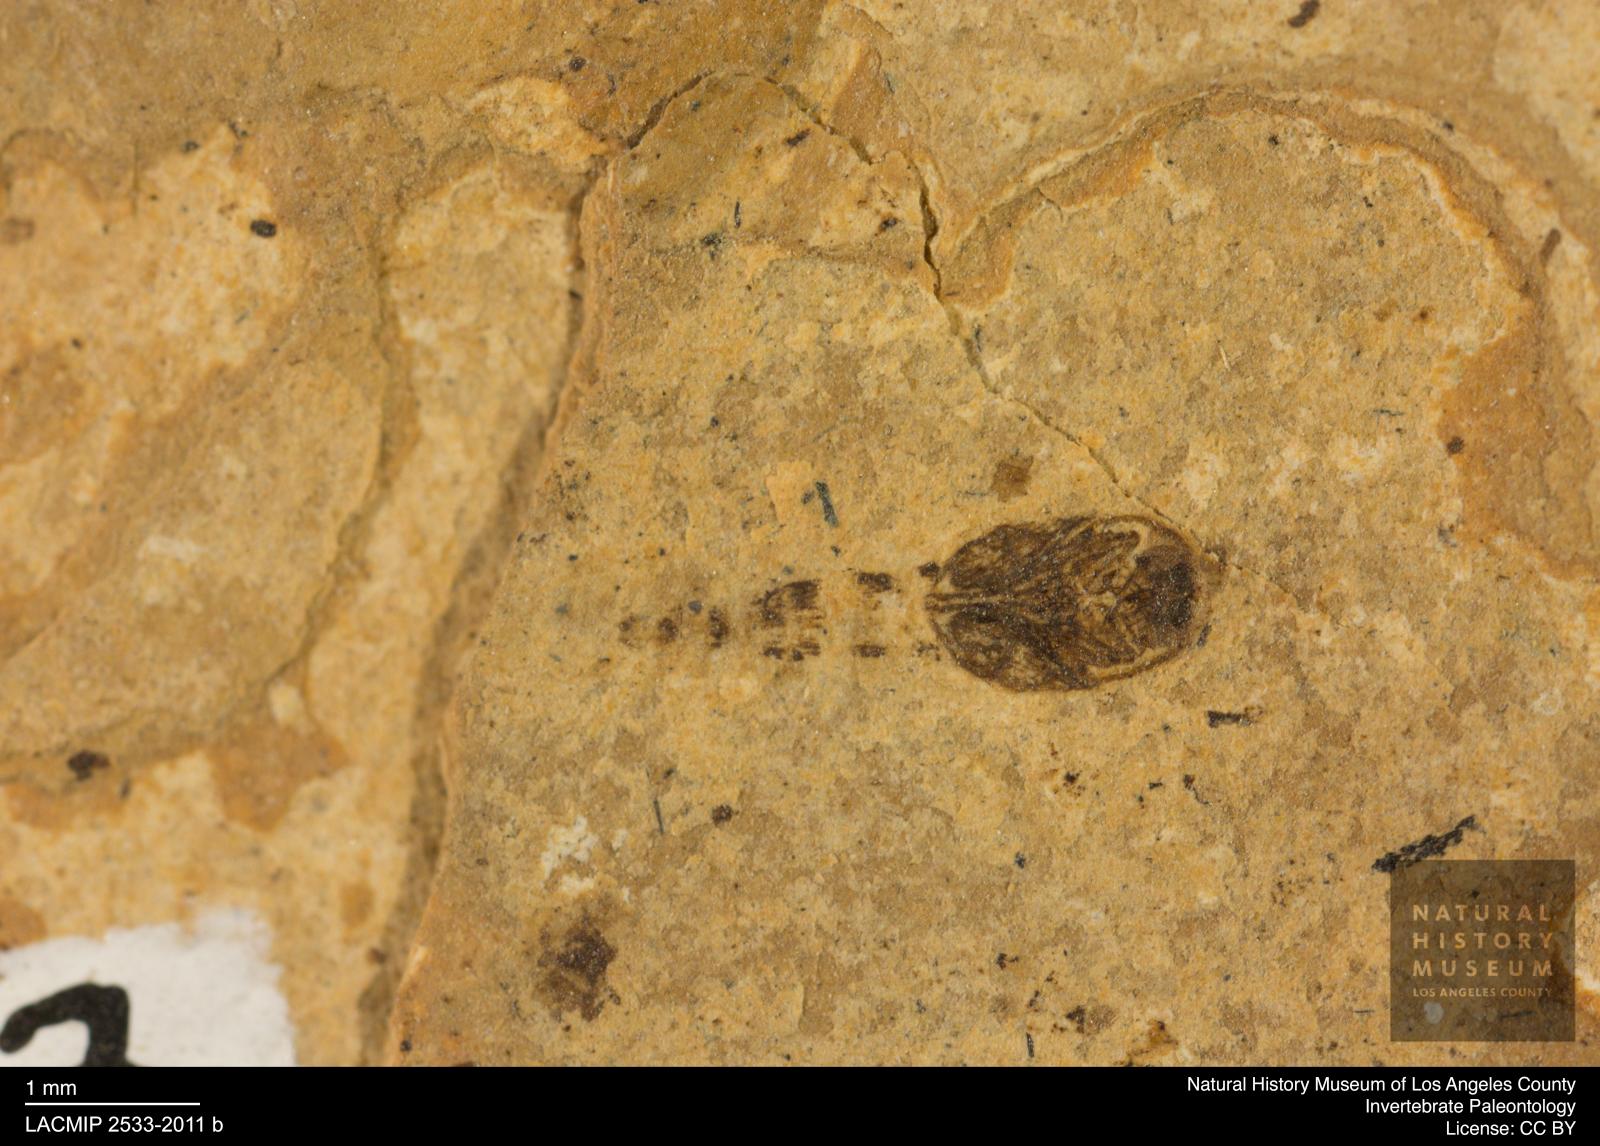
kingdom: Animalia
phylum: Arthropoda
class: Insecta
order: Diptera
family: Ceratopogonidae
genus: Ceratopogon
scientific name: Ceratopogon
